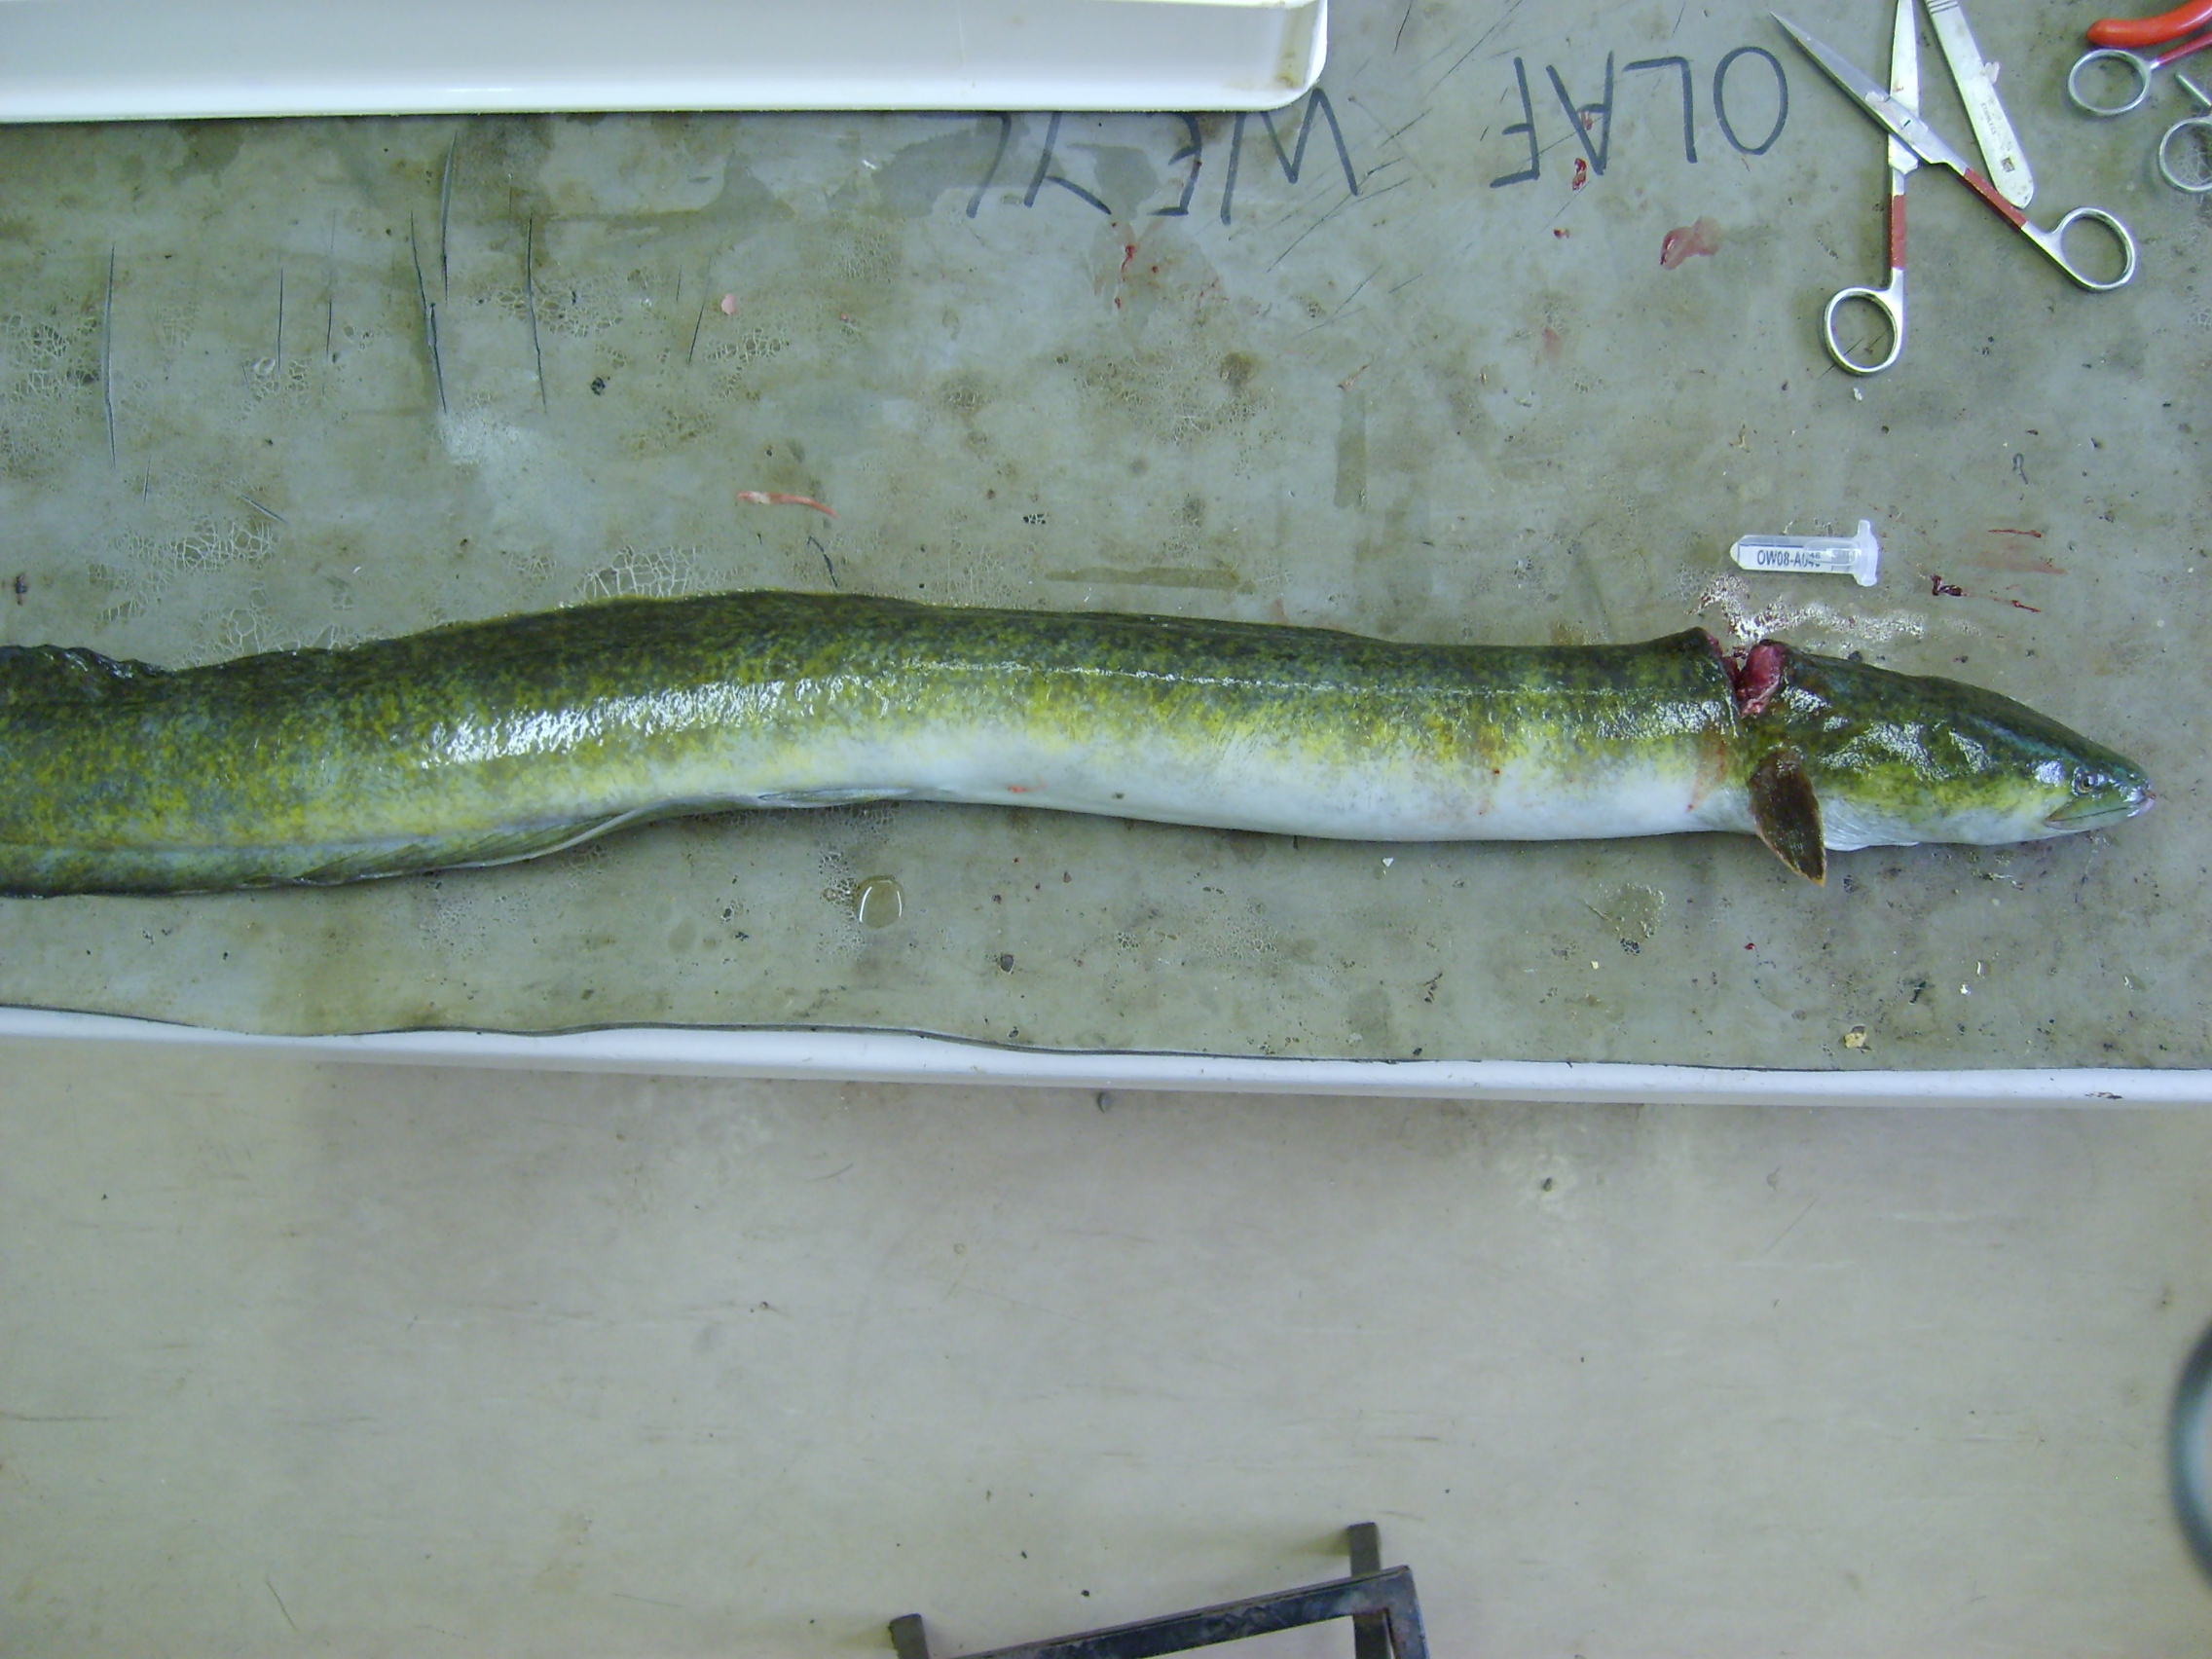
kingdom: Animalia
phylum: Chordata
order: Anguilliformes
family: Anguillidae
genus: Anguilla
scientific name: Anguilla marmorata
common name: Giant mottled eel
